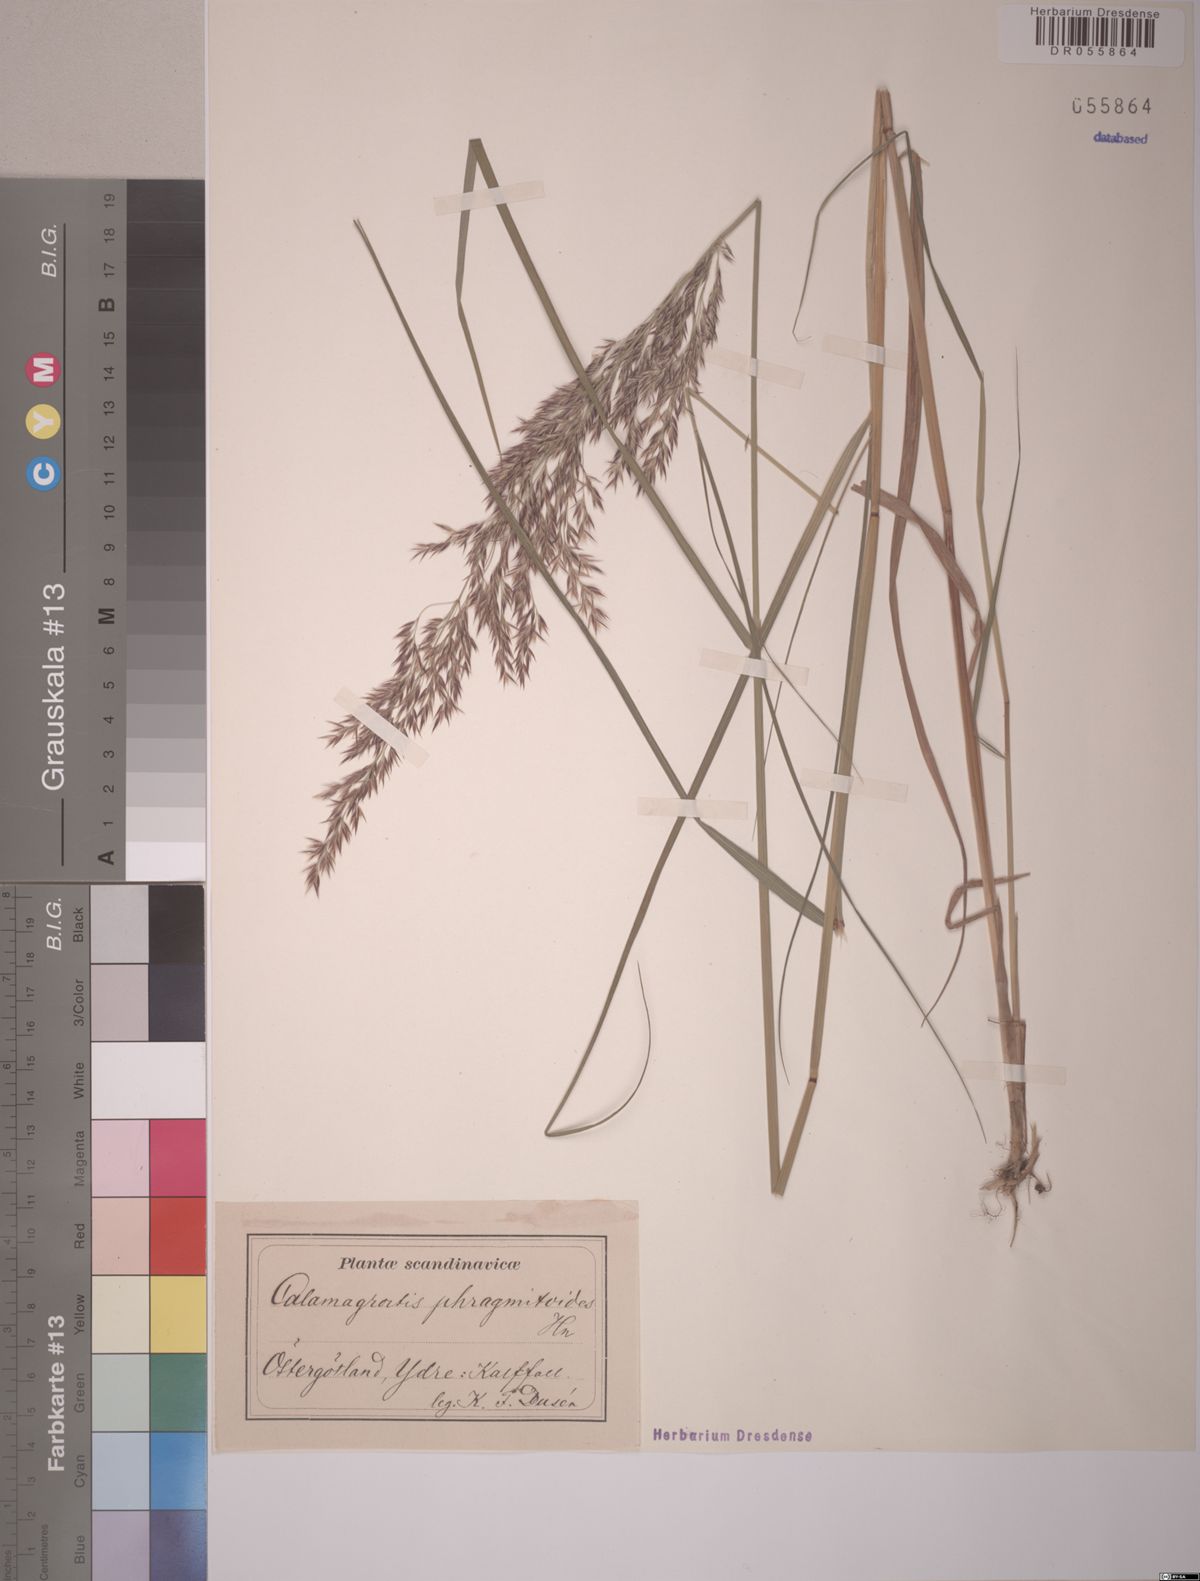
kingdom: Plantae
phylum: Tracheophyta
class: Liliopsida
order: Poales
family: Poaceae
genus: Calamagrostis
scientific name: Calamagrostis purpurea
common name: Scandinavian small-reed
